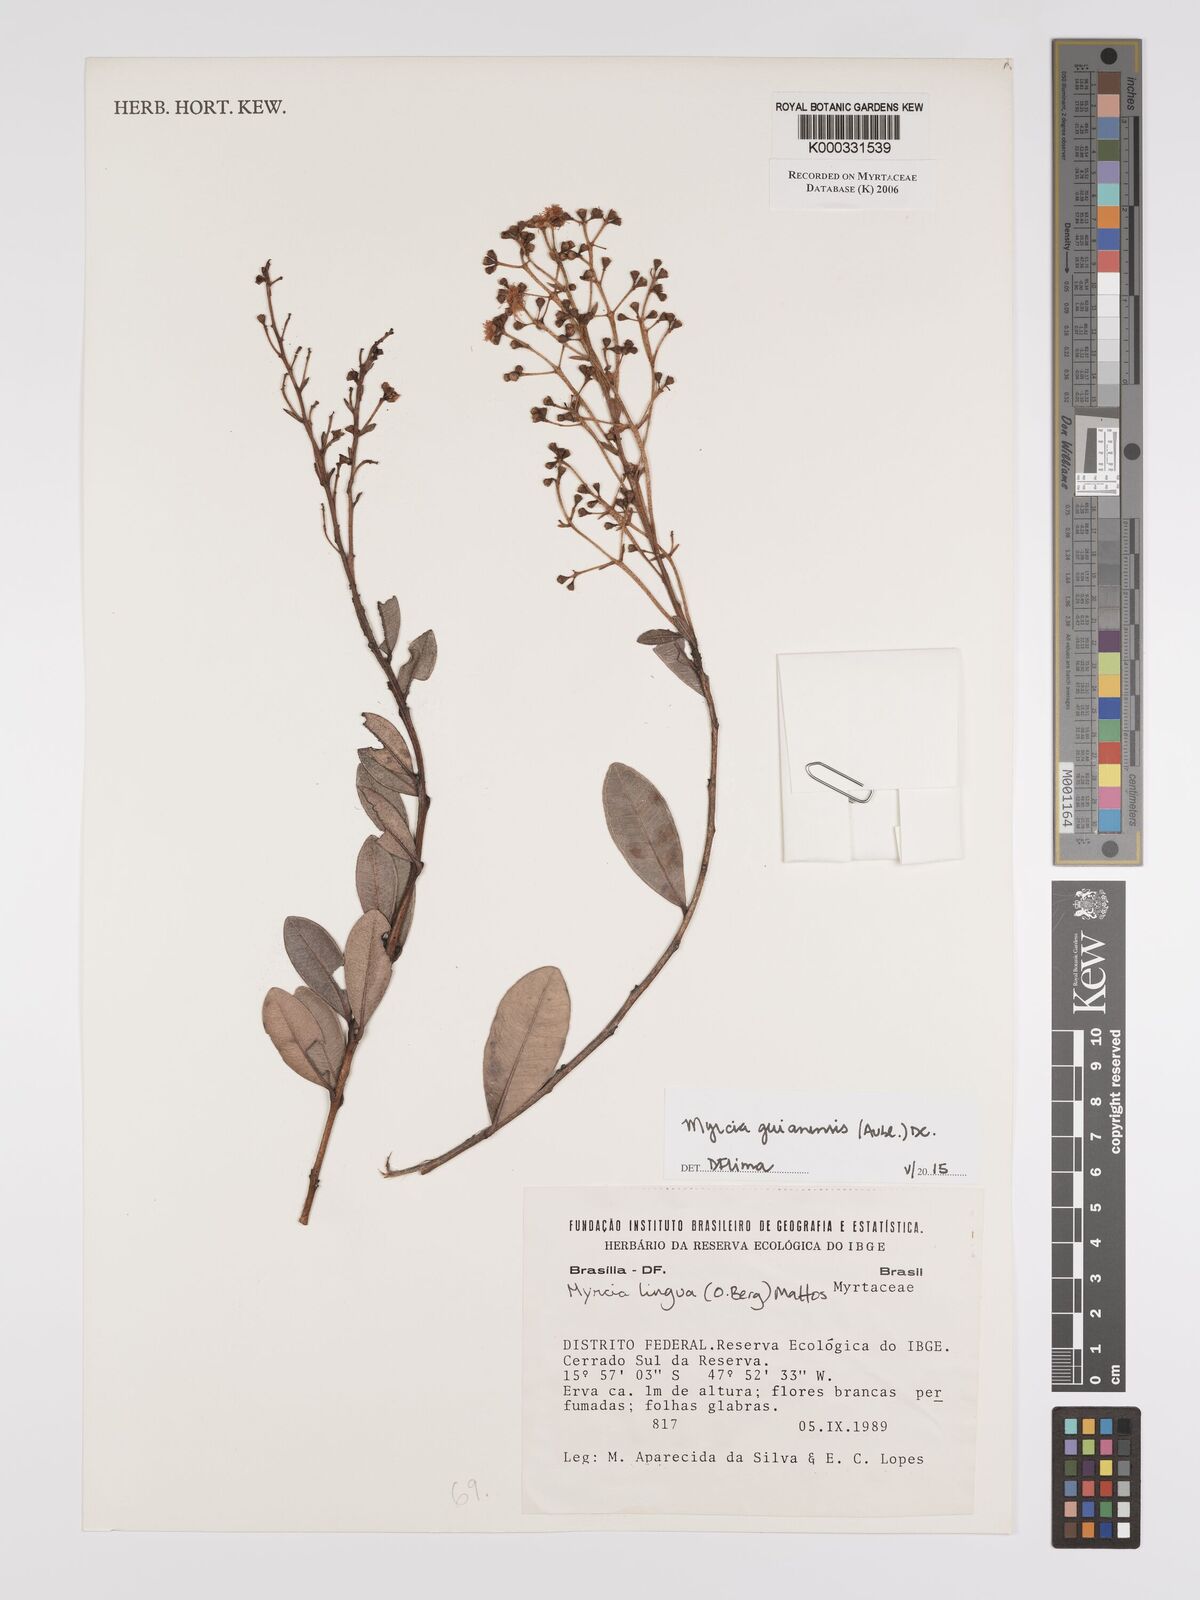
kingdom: Plantae
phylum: Tracheophyta
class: Magnoliopsida
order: Myrtales
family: Myrtaceae
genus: Myrcia
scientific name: Myrcia
